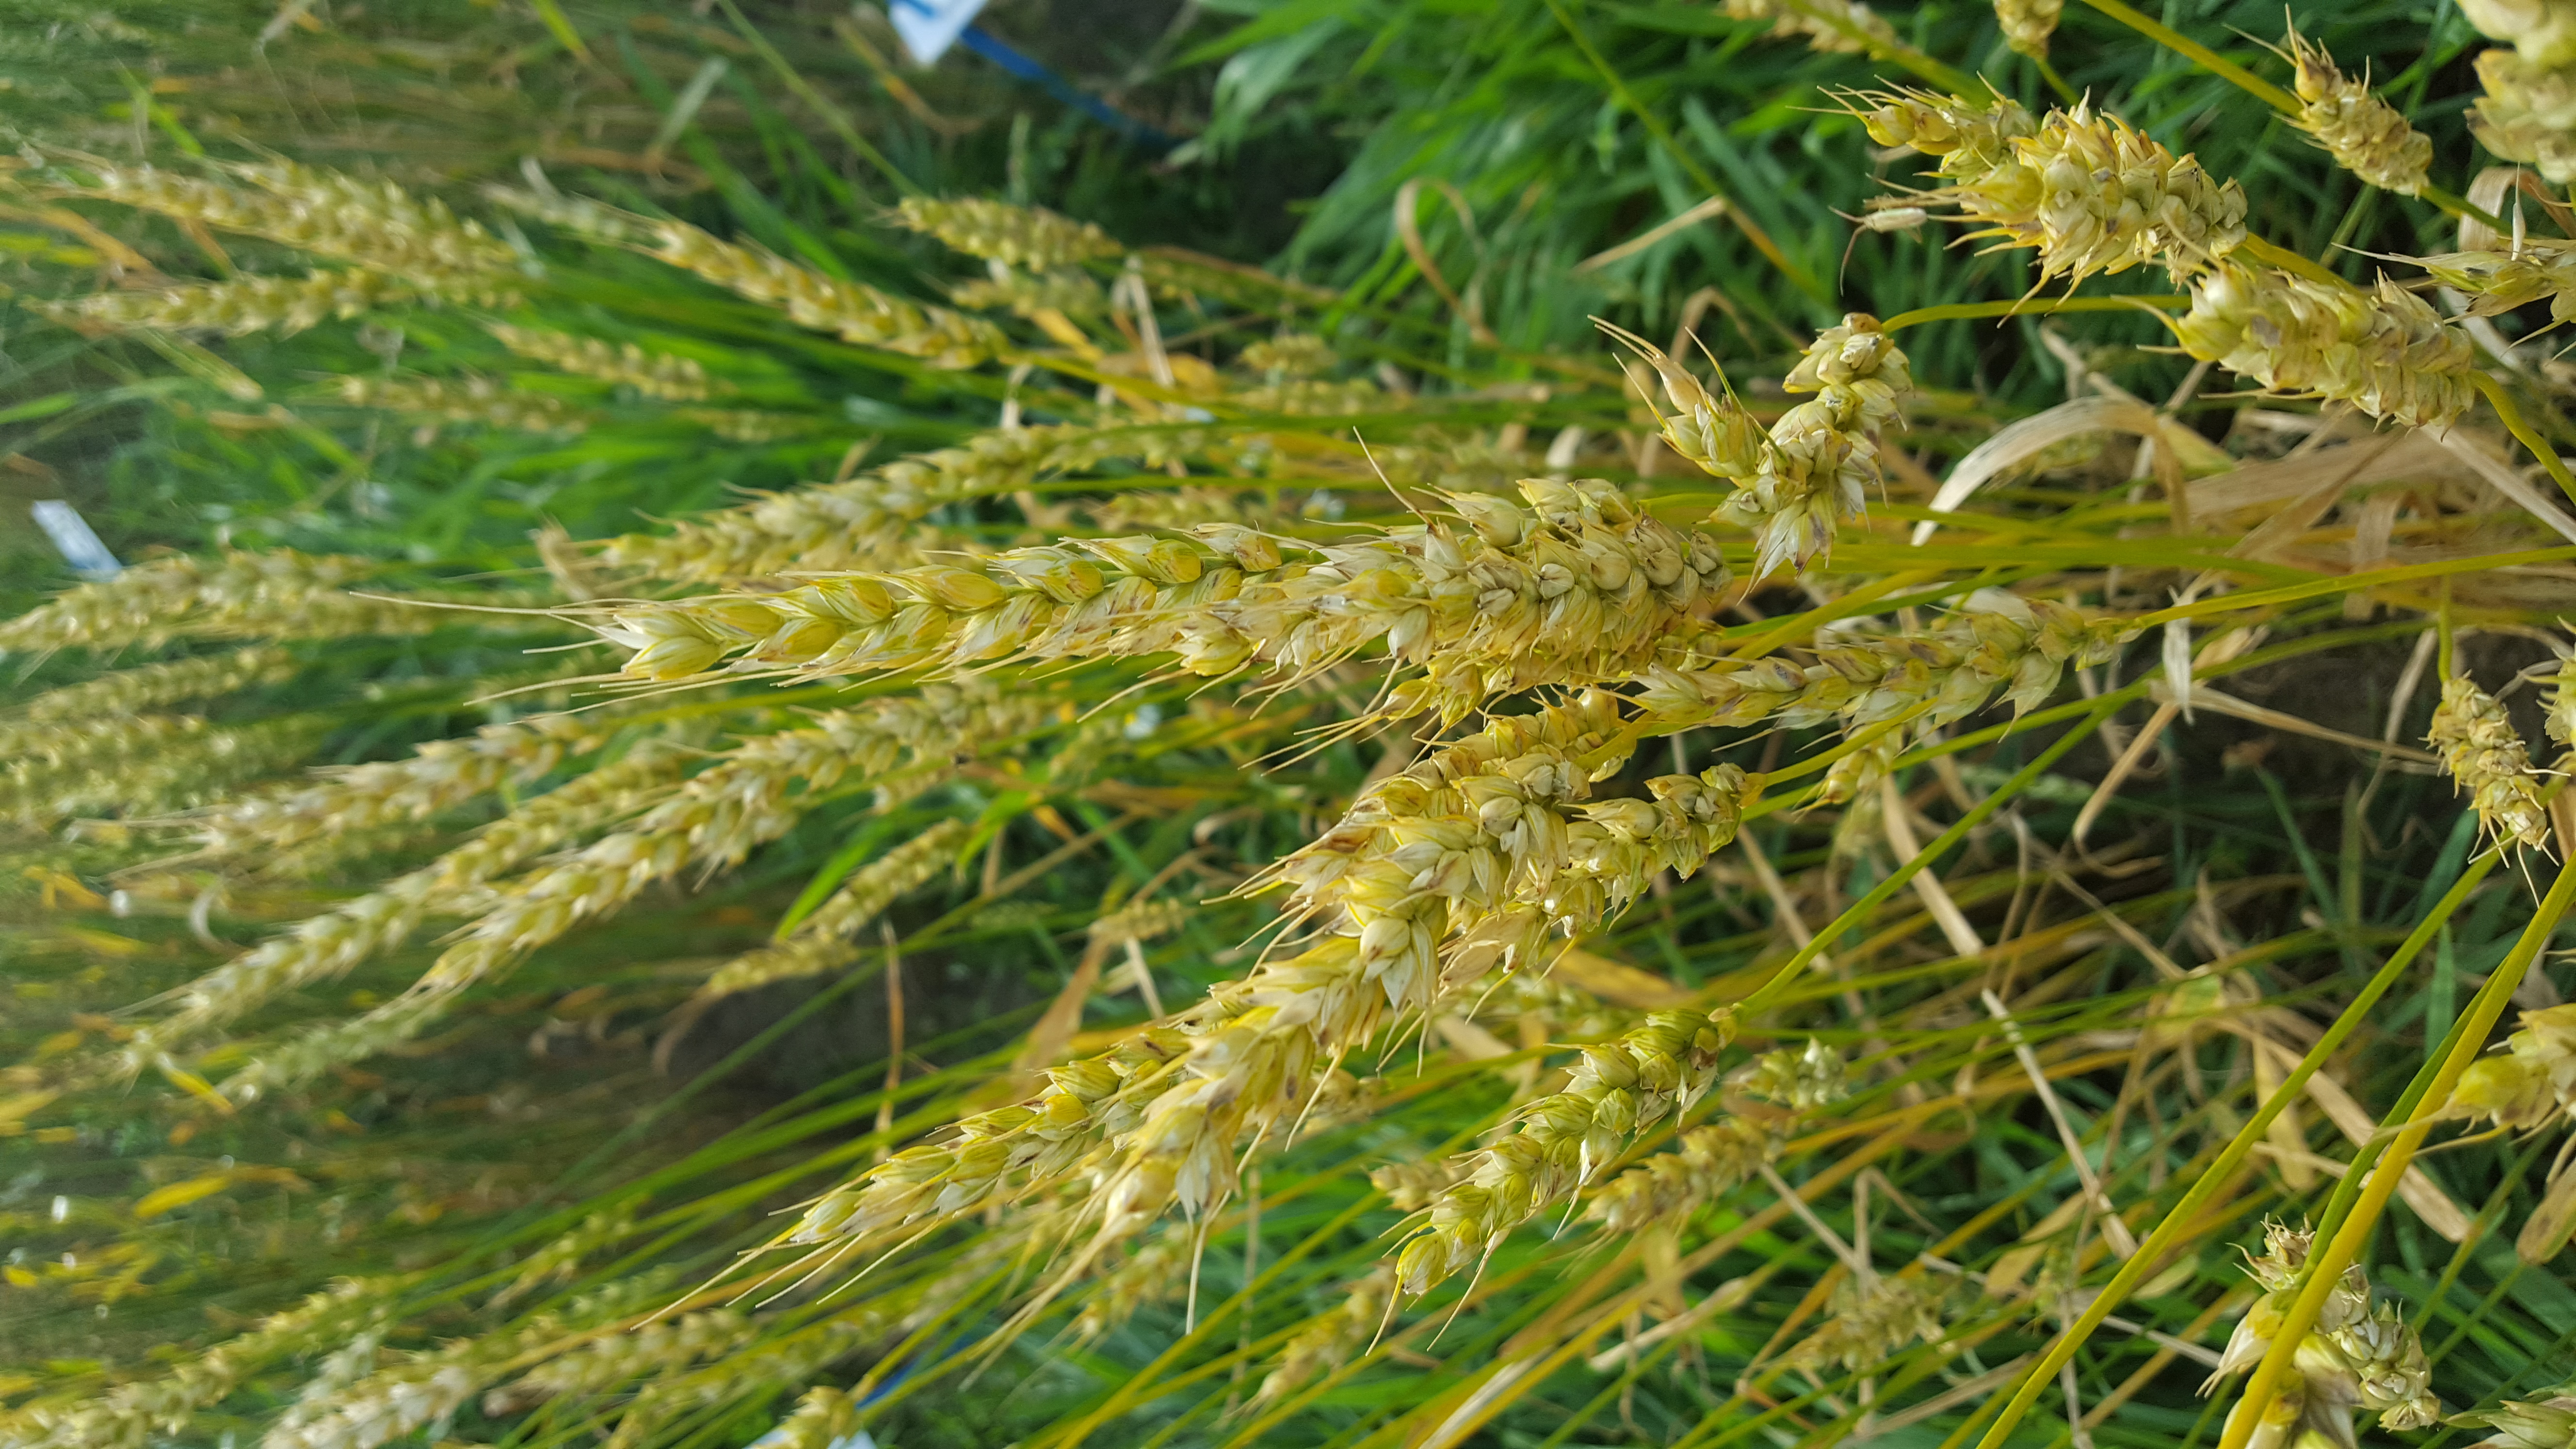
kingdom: Plantae
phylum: Tracheophyta
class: Liliopsida
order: Poales
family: Poaceae
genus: Triticum
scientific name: Triticum aestivum
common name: Common wheat
